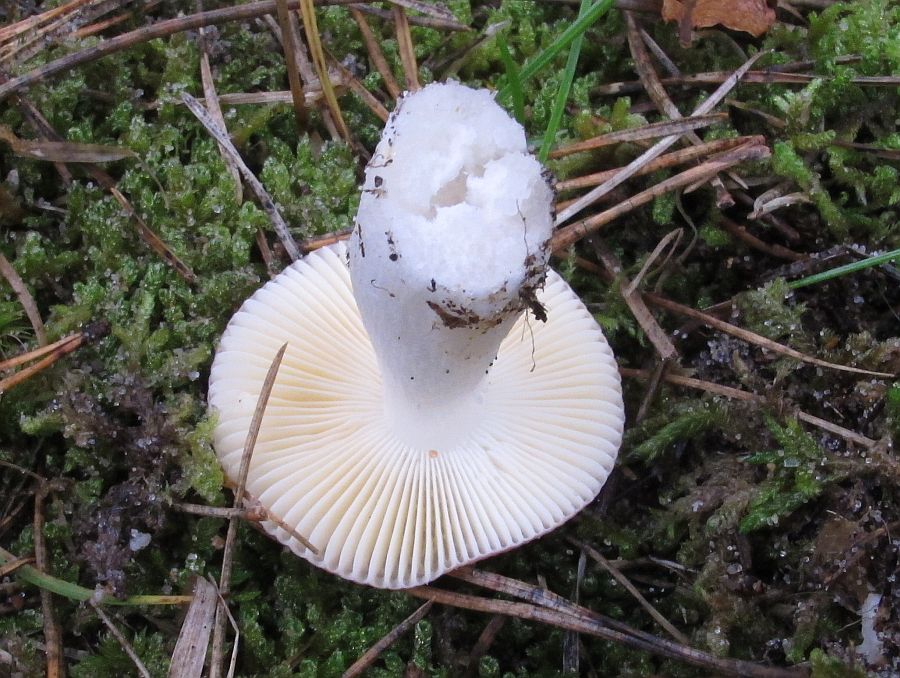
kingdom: Fungi
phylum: Basidiomycota
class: Agaricomycetes
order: Russulales
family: Russulaceae
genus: Russula
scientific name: Russula
